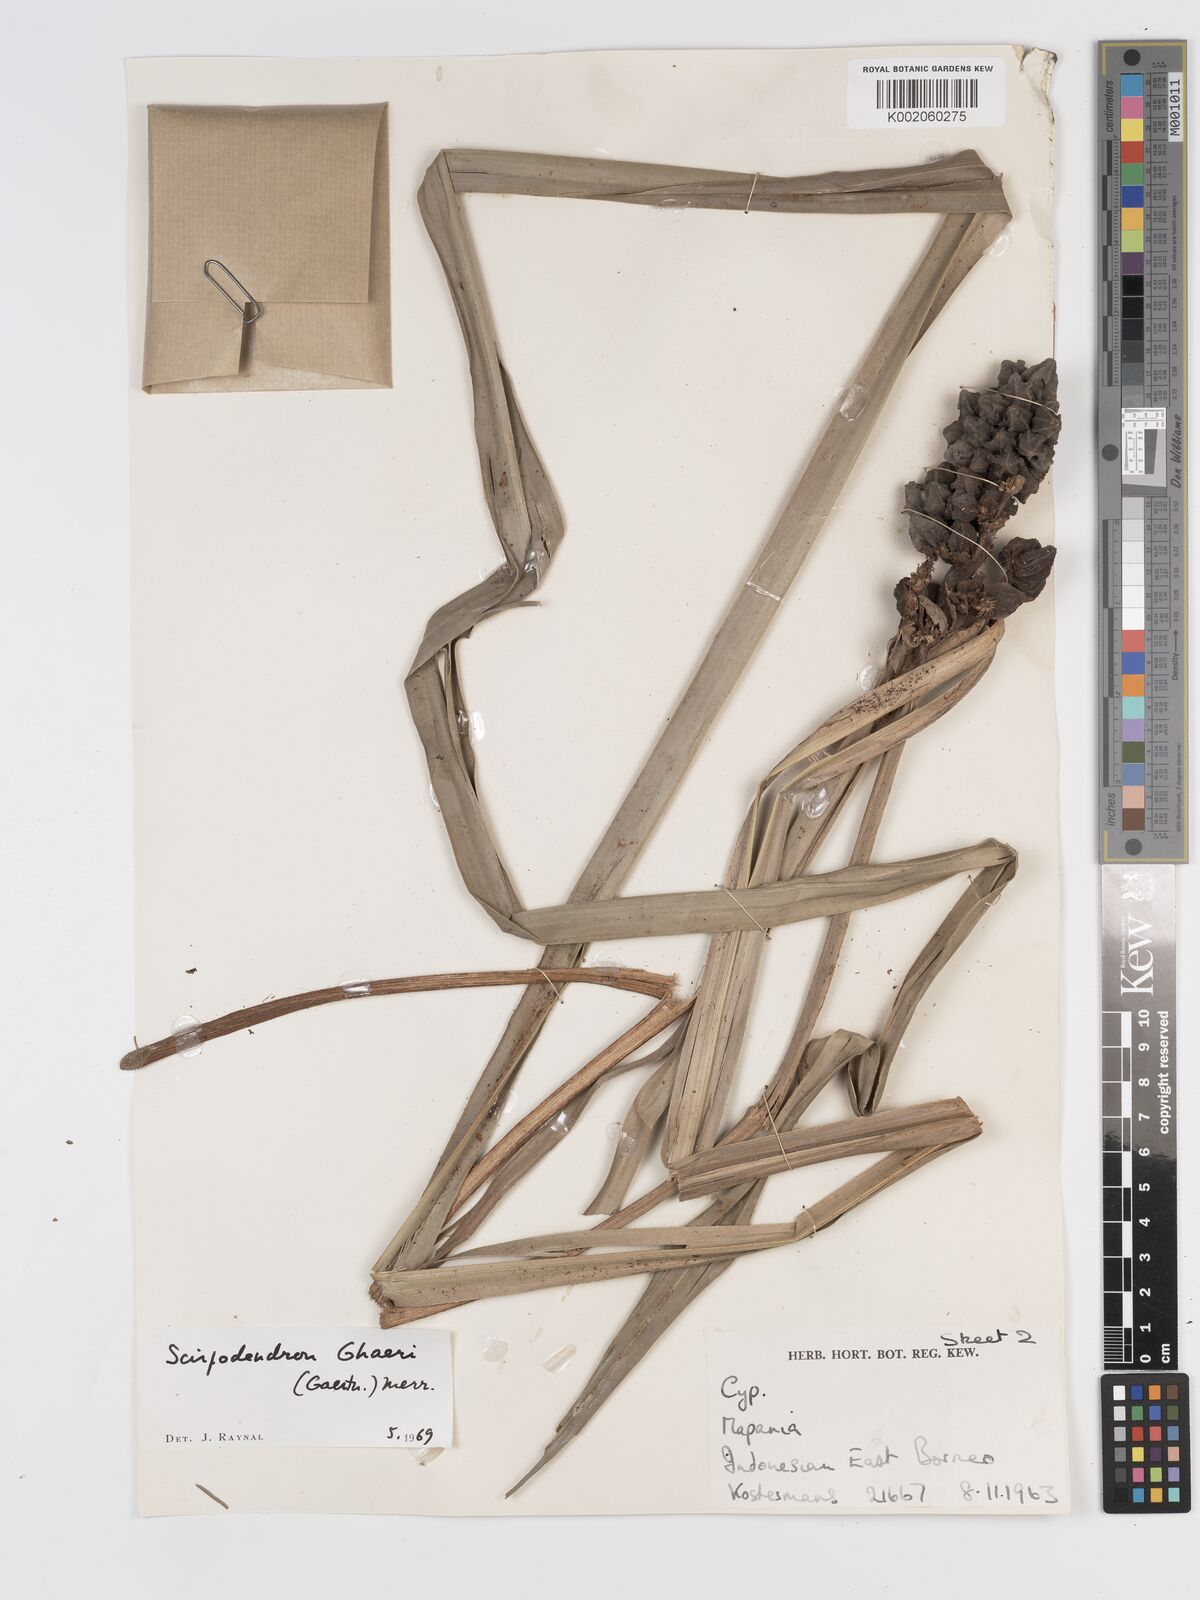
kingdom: Plantae
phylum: Tracheophyta
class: Liliopsida
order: Poales
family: Cyperaceae
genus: Scirpodendron
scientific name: Scirpodendron ghaeri
